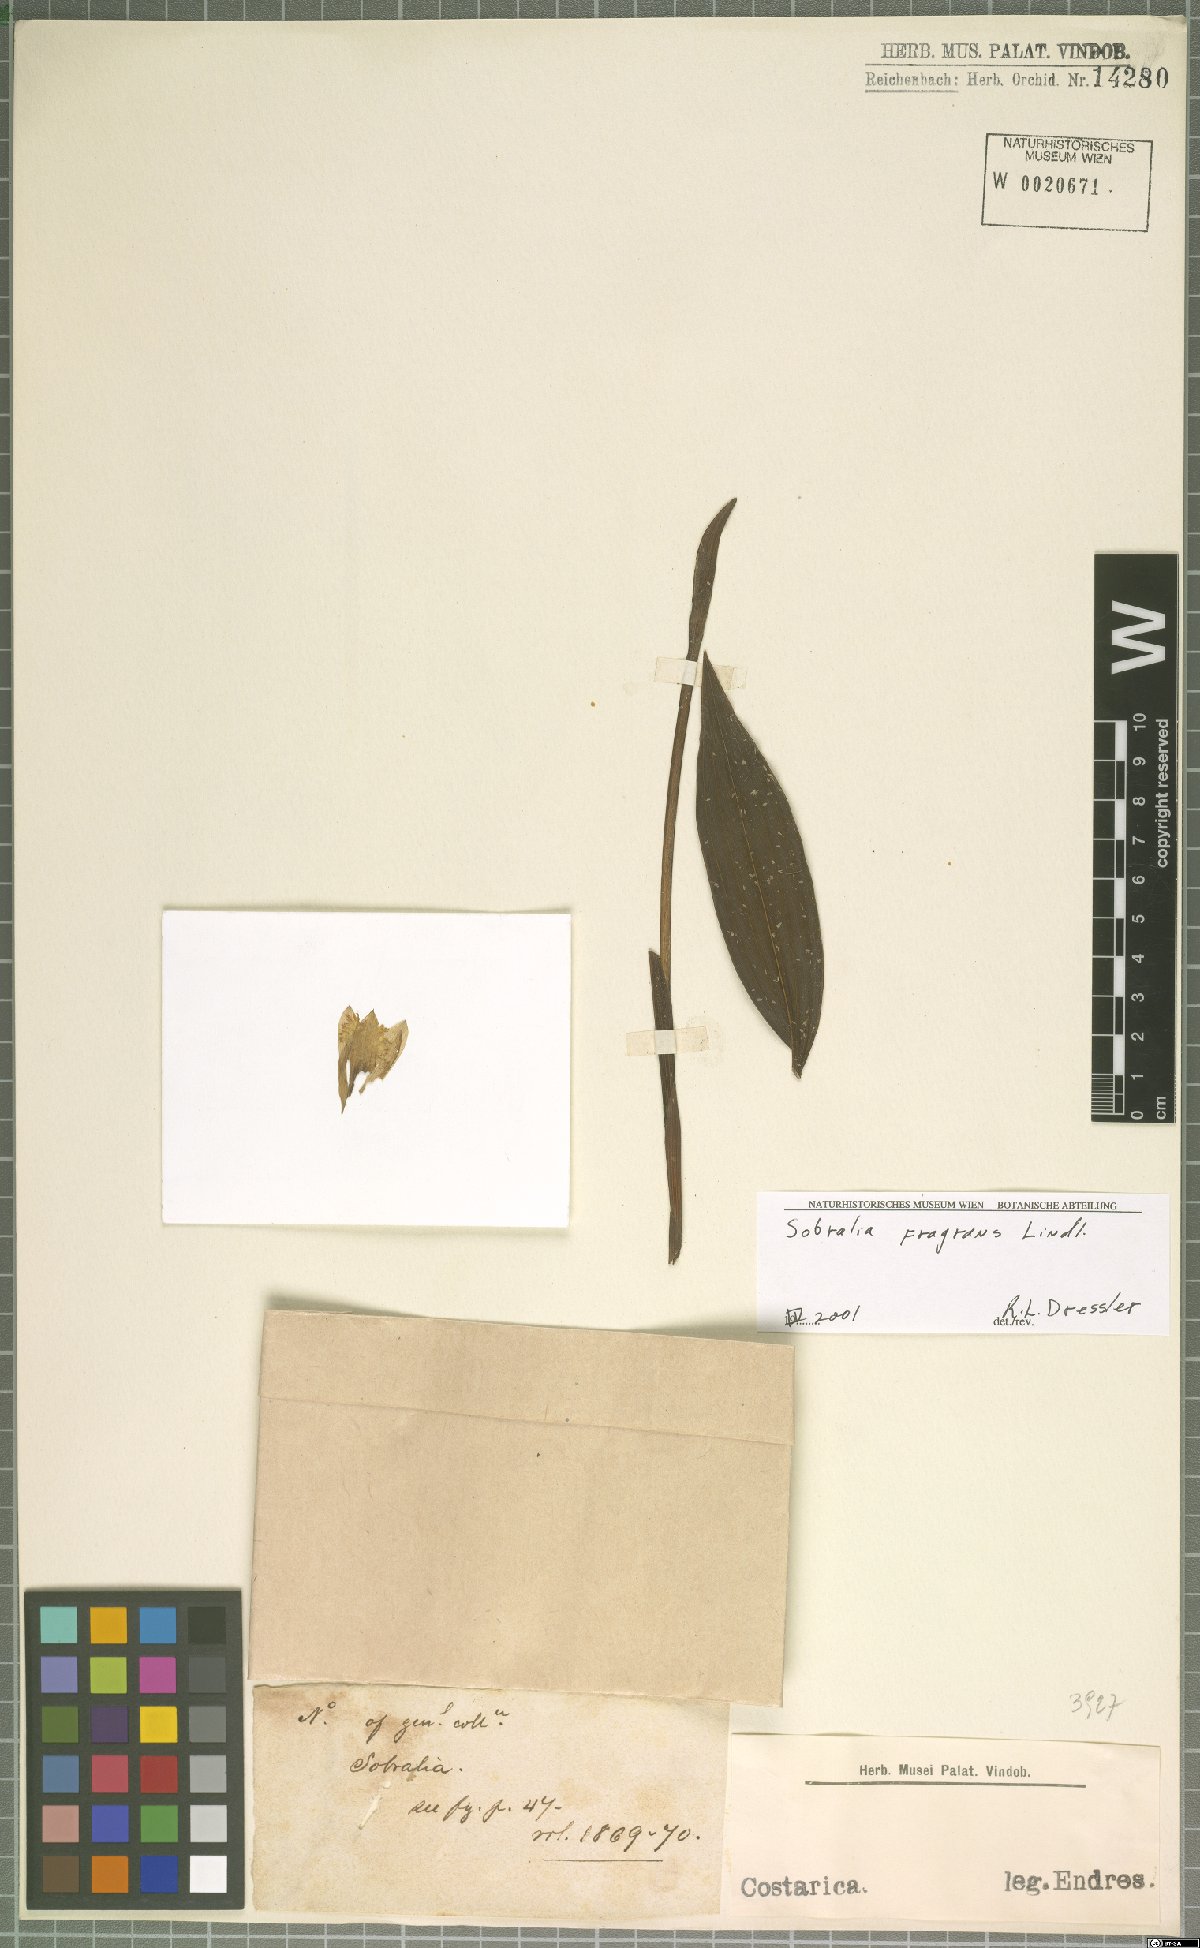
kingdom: Plantae
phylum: Tracheophyta
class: Liliopsida
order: Asparagales
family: Orchidaceae
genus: Sobralia
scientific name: Sobralia fragrans
